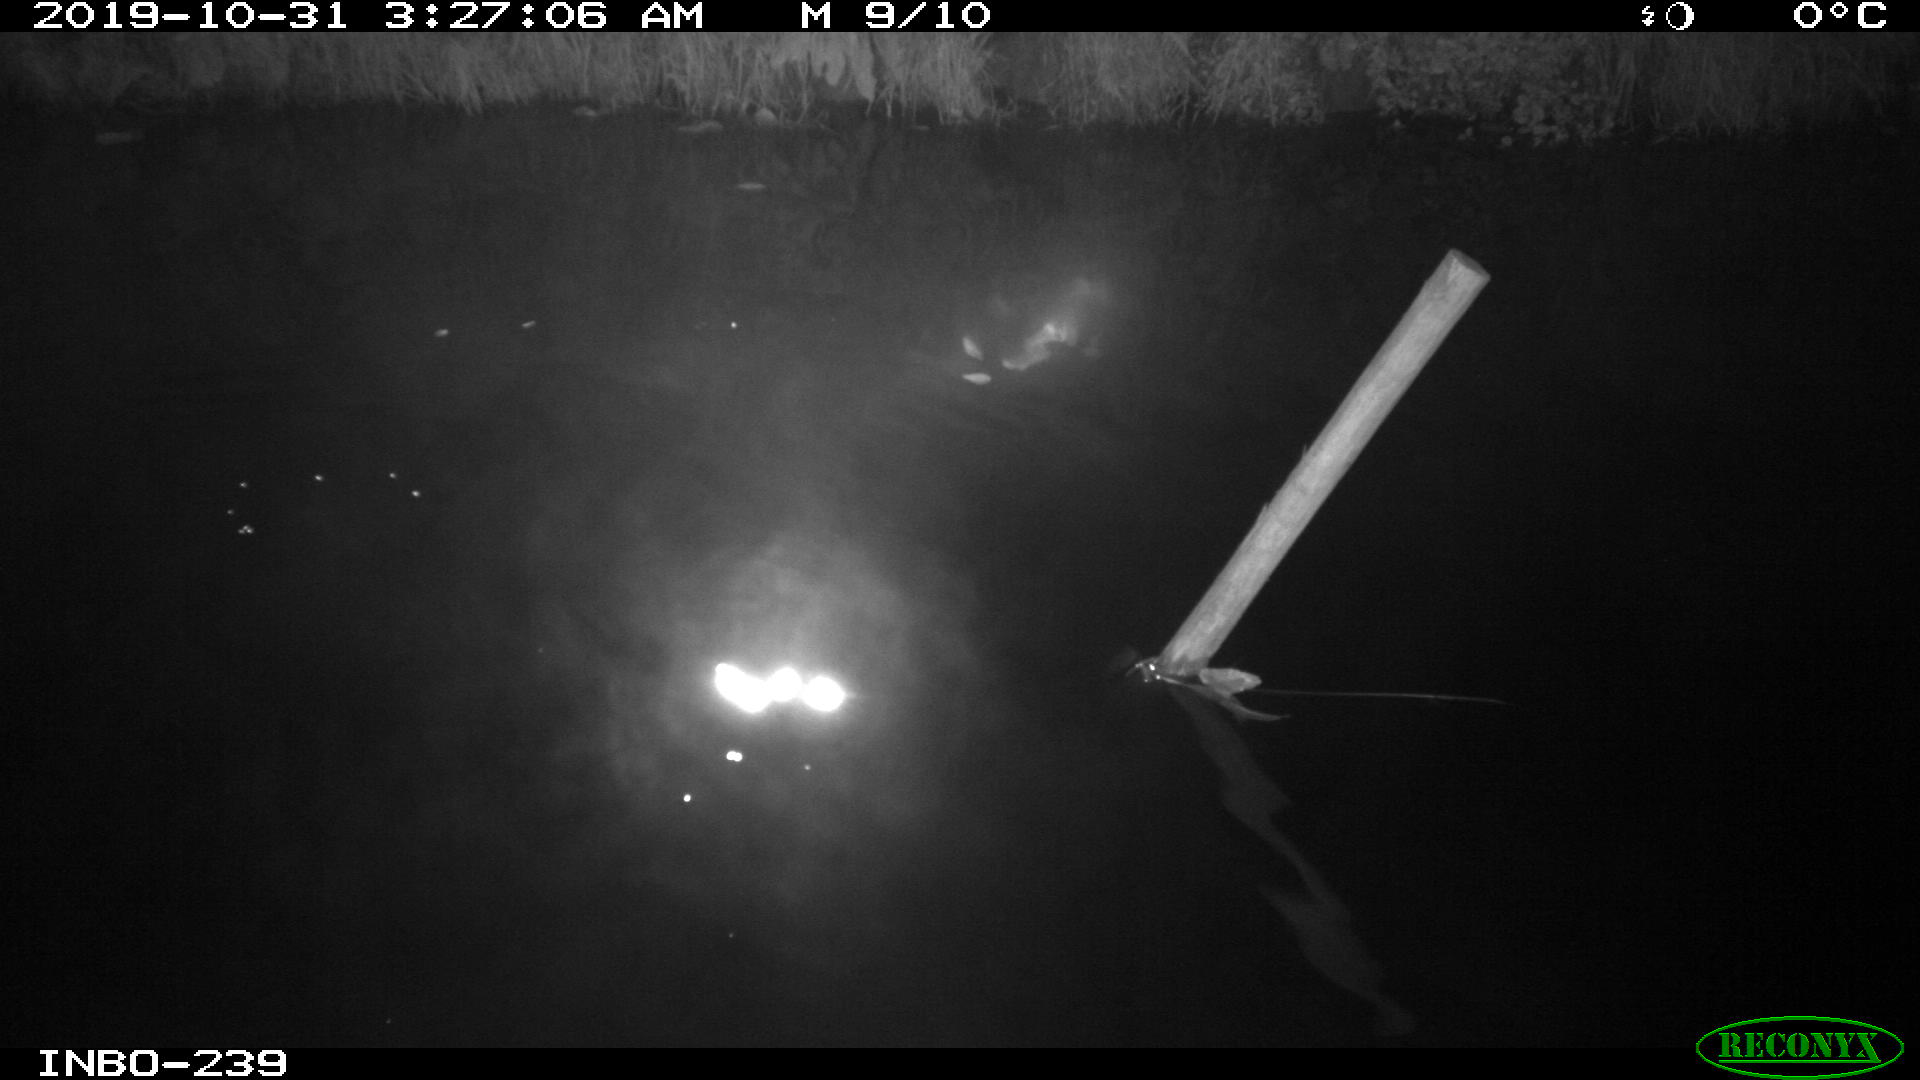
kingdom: Animalia
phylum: Chordata
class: Aves
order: Anseriformes
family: Anatidae
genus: Anas
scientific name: Anas platyrhynchos
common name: Mallard
